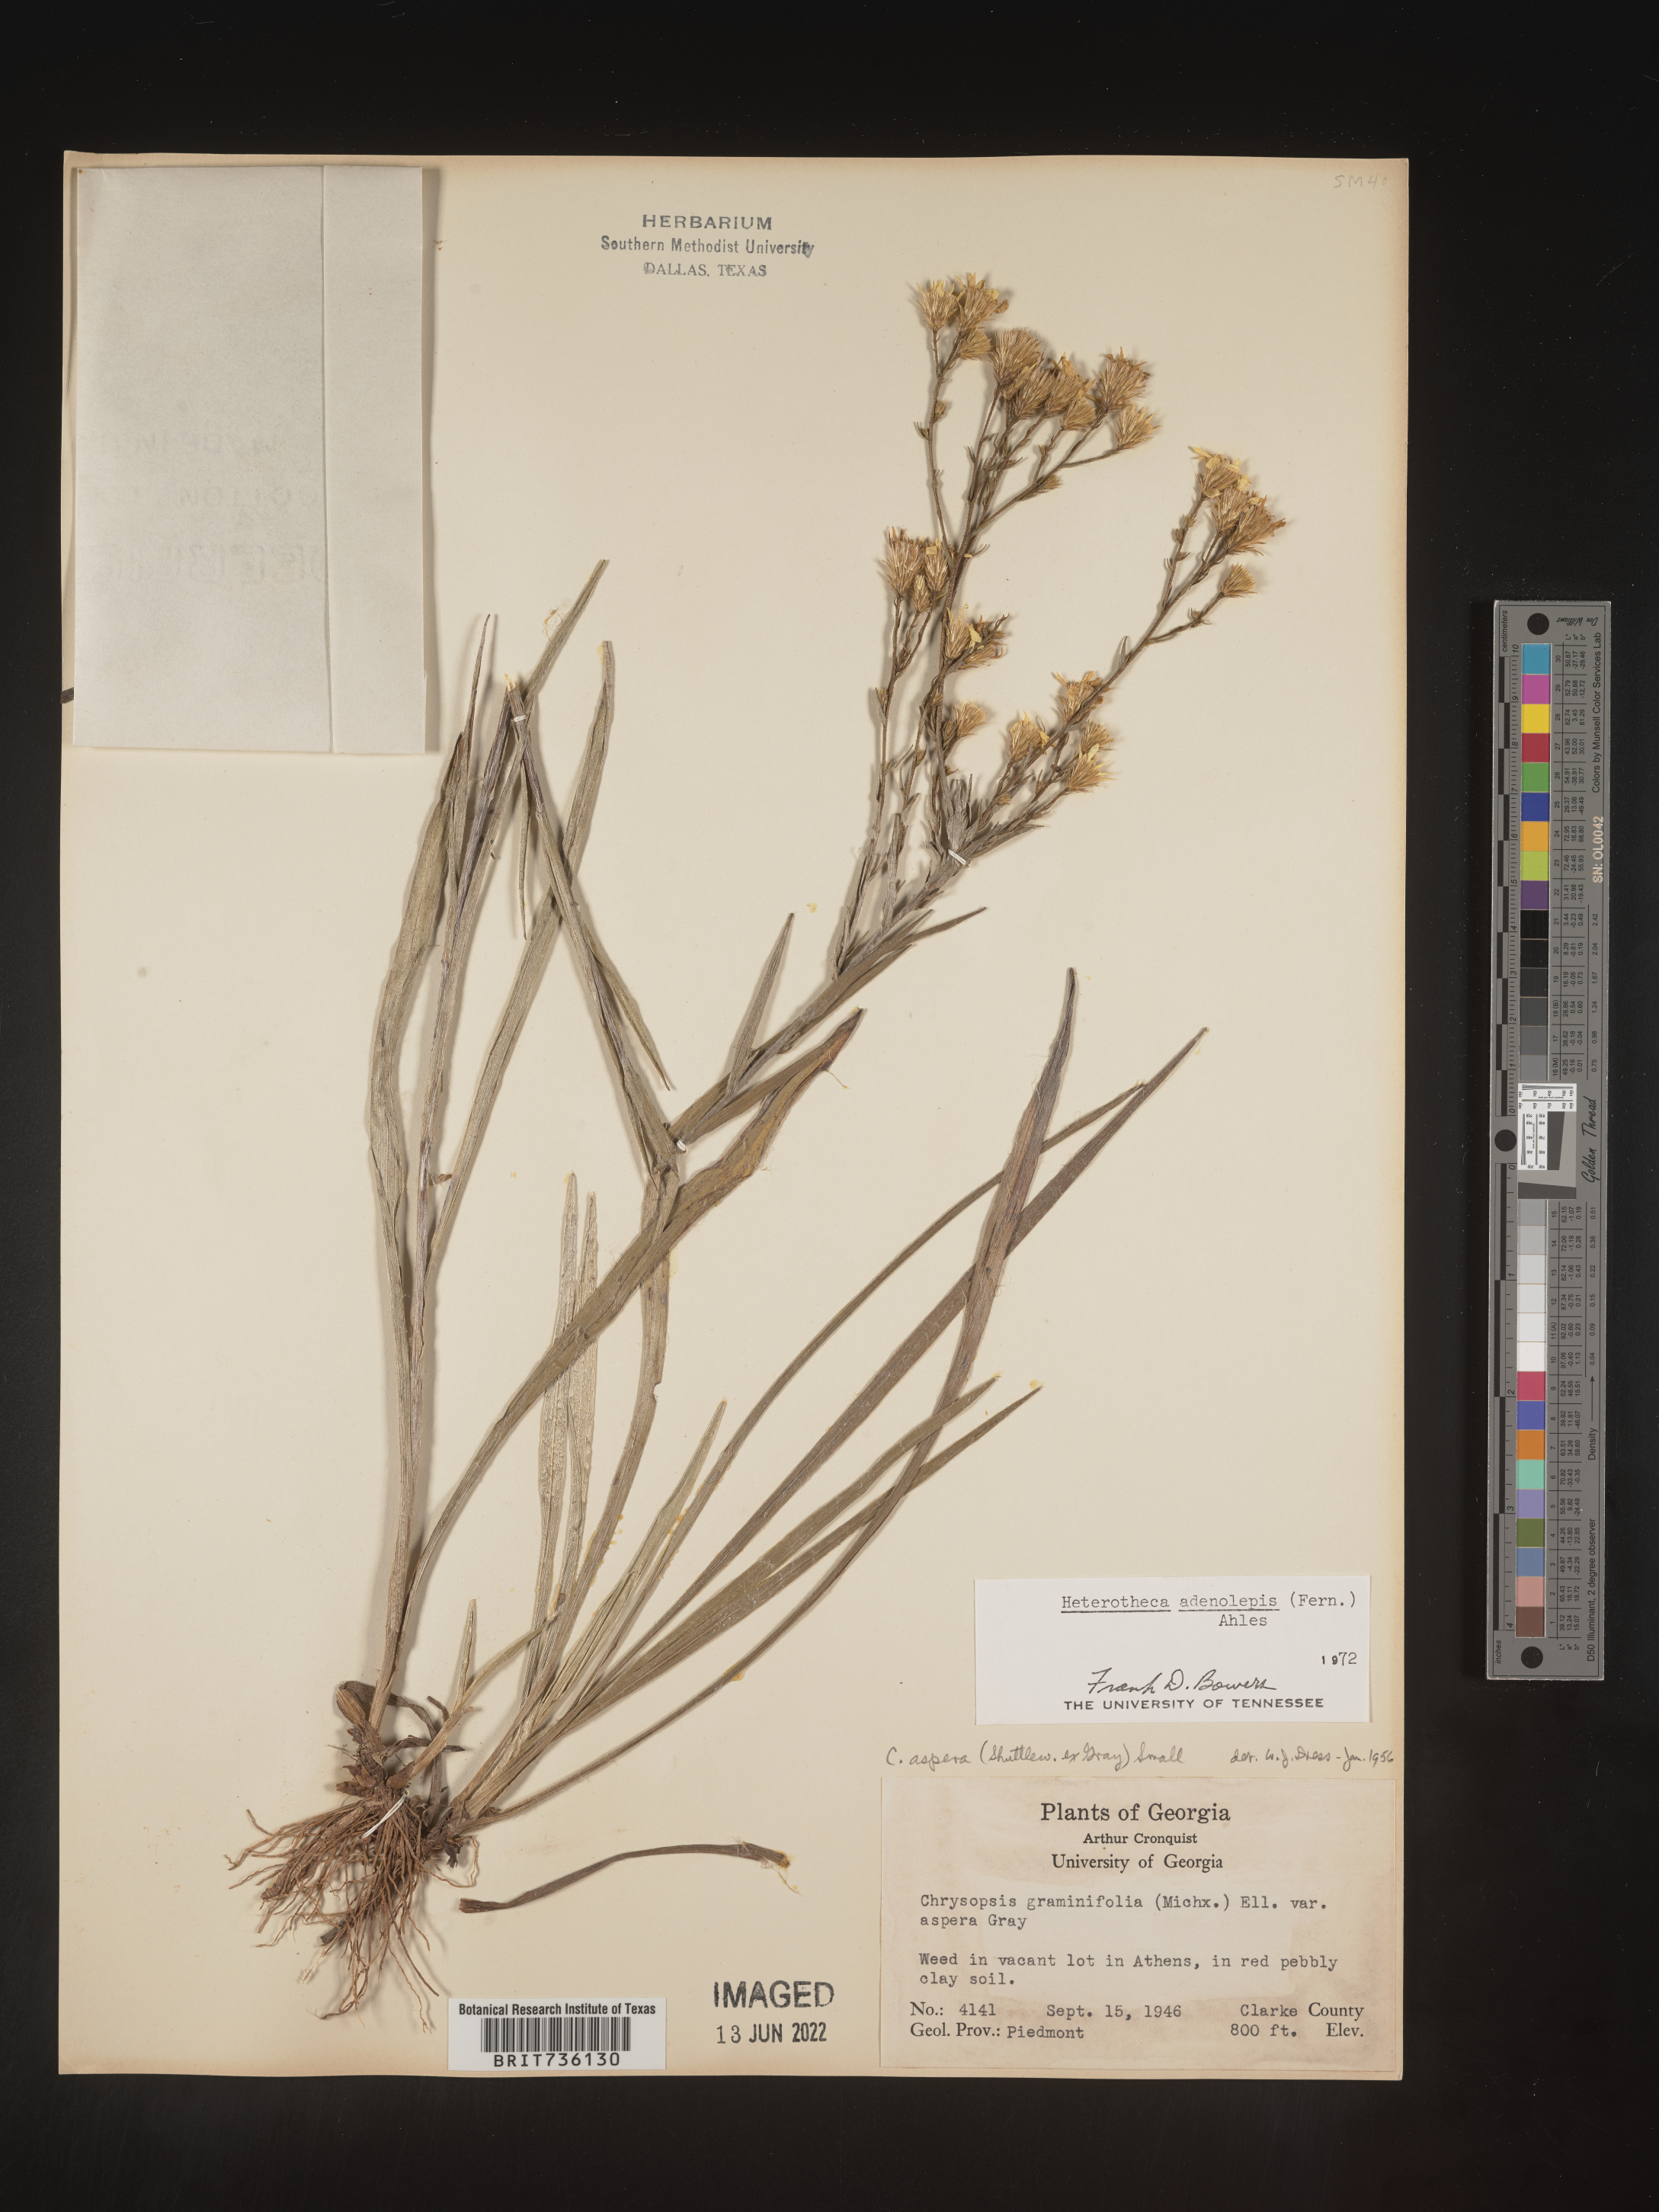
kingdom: Plantae
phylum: Tracheophyta
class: Magnoliopsida
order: Asterales
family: Asteraceae
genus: Pityopsis
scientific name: Pityopsis aspera
